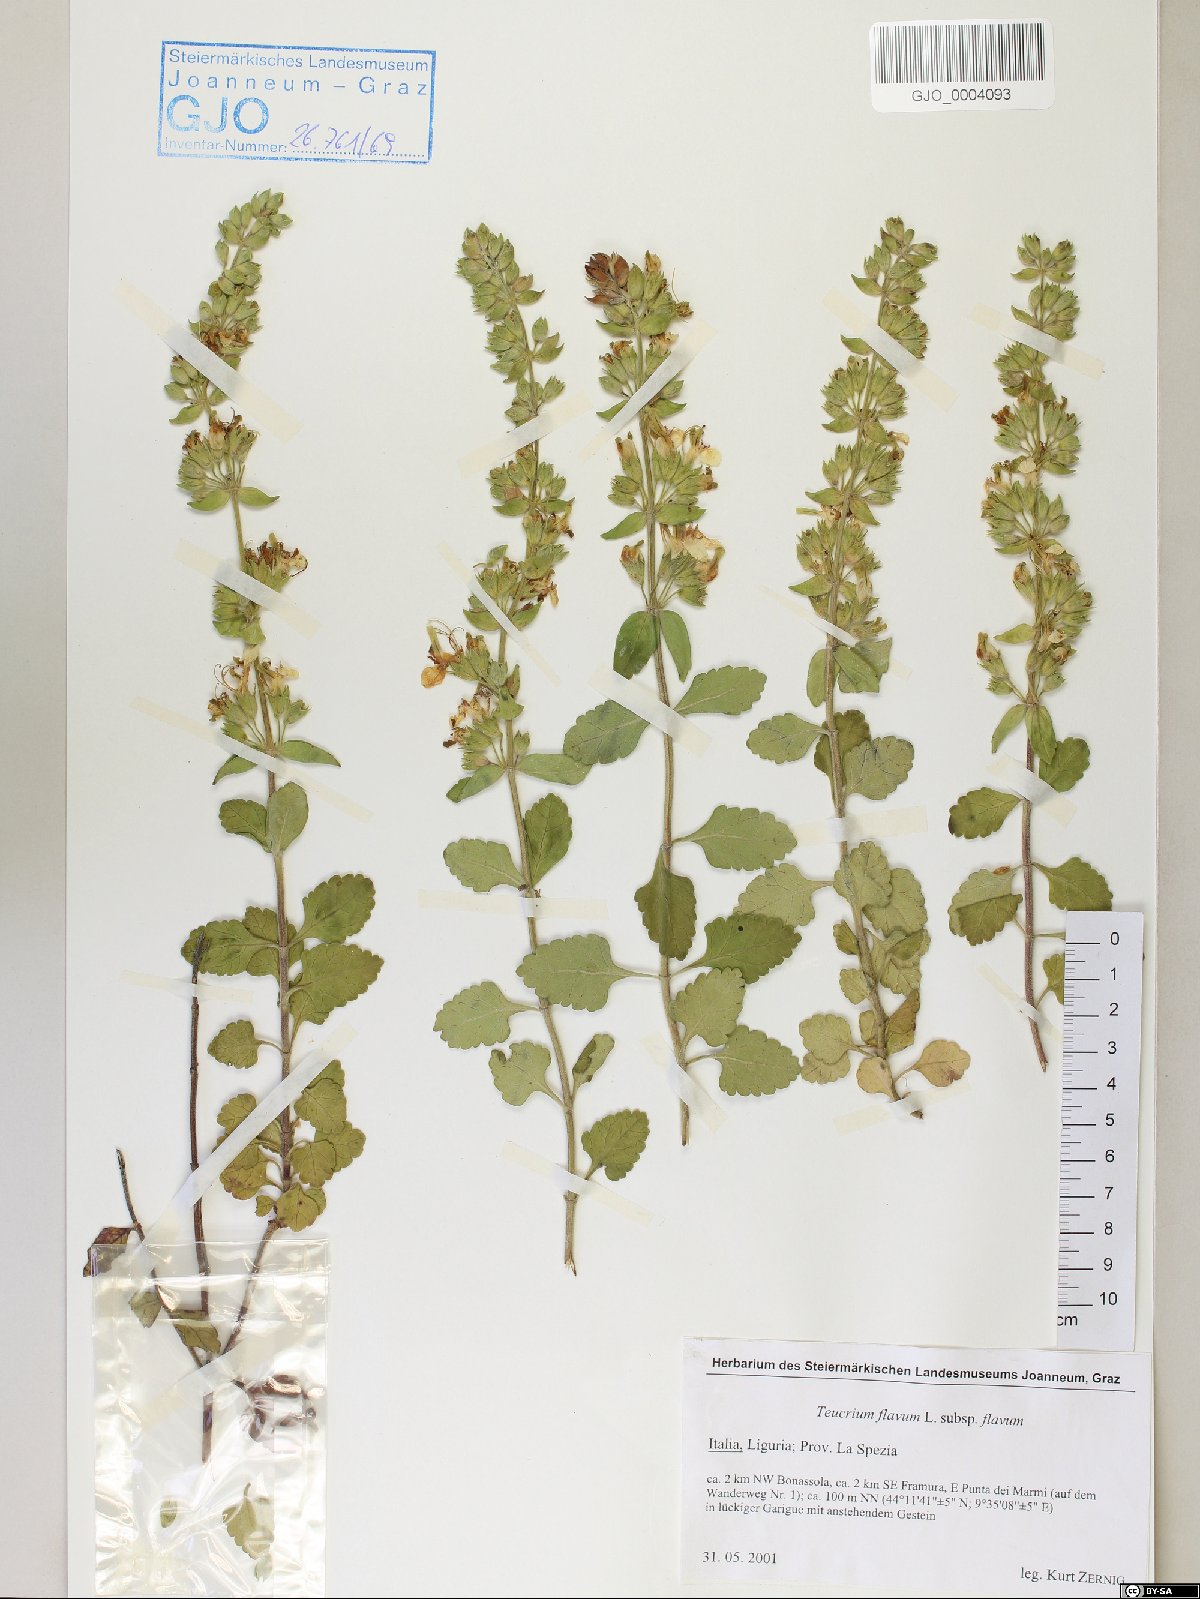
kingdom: Plantae
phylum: Tracheophyta
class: Magnoliopsida
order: Lamiales
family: Lamiaceae
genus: Teucrium
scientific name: Teucrium flavum
